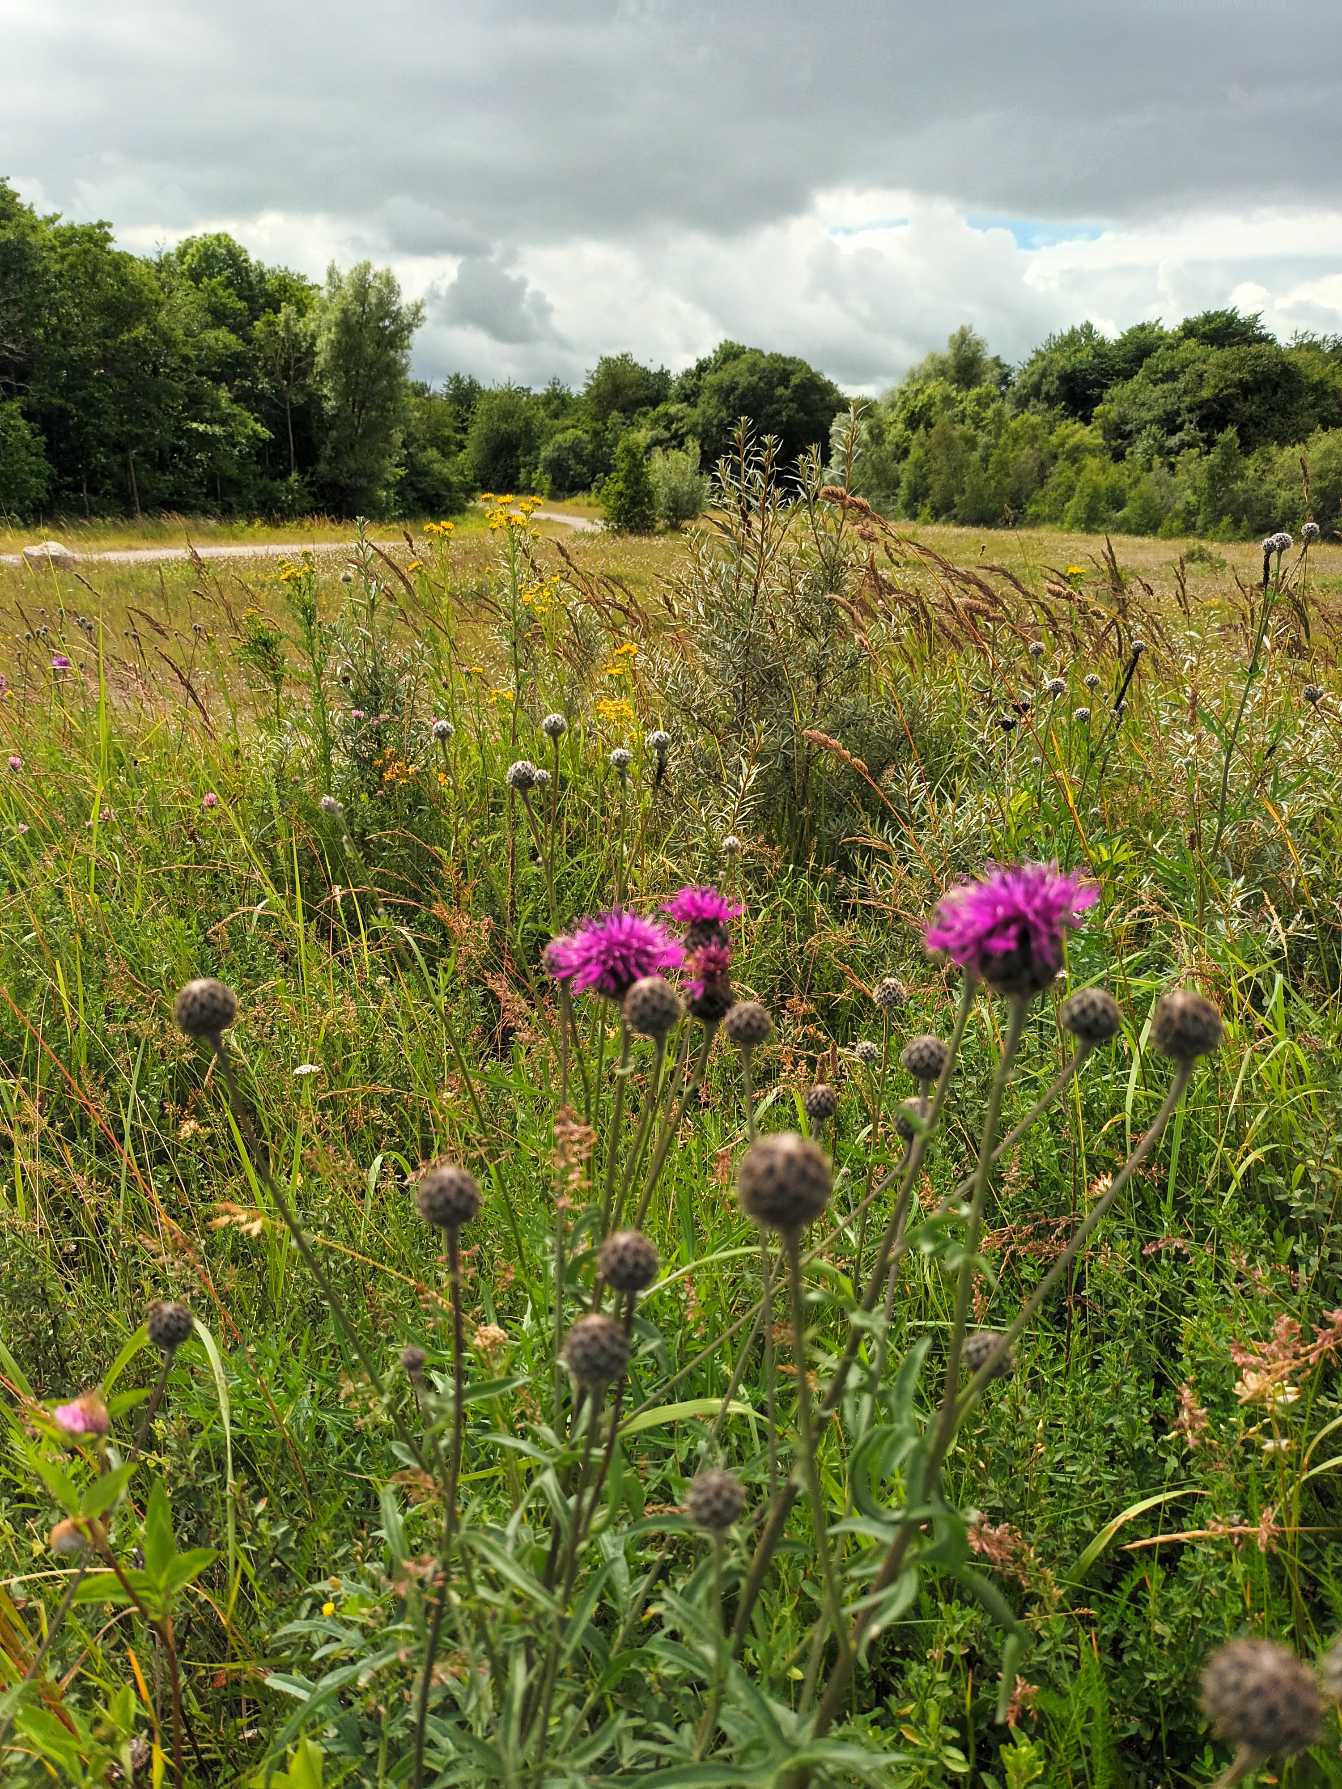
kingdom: Plantae
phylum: Tracheophyta
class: Magnoliopsida
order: Asterales
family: Asteraceae
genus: Centaurea
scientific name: Centaurea scabiosa
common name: Stor knopurt
